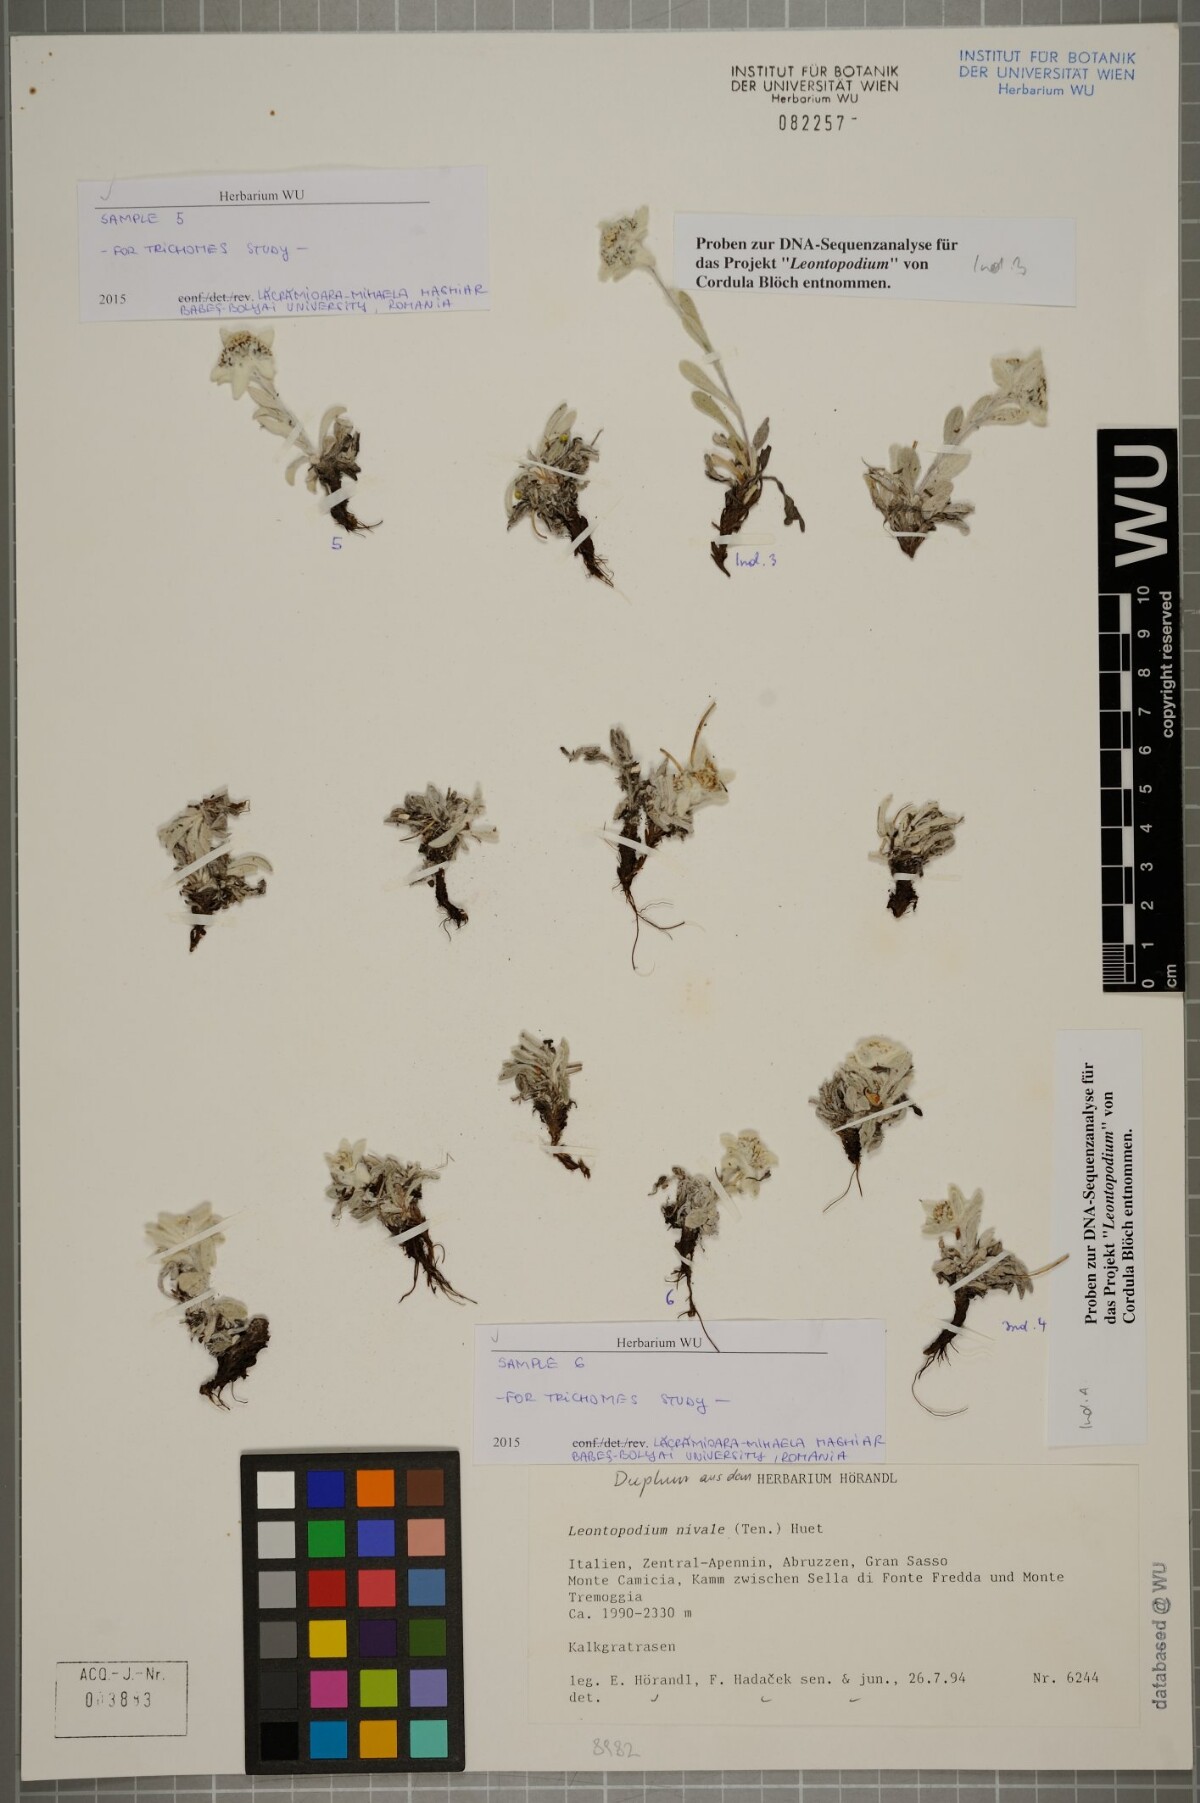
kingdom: Plantae
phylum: Tracheophyta
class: Magnoliopsida
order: Asterales
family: Asteraceae
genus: Leontopodium
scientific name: Leontopodium nivale
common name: Edelweiss
